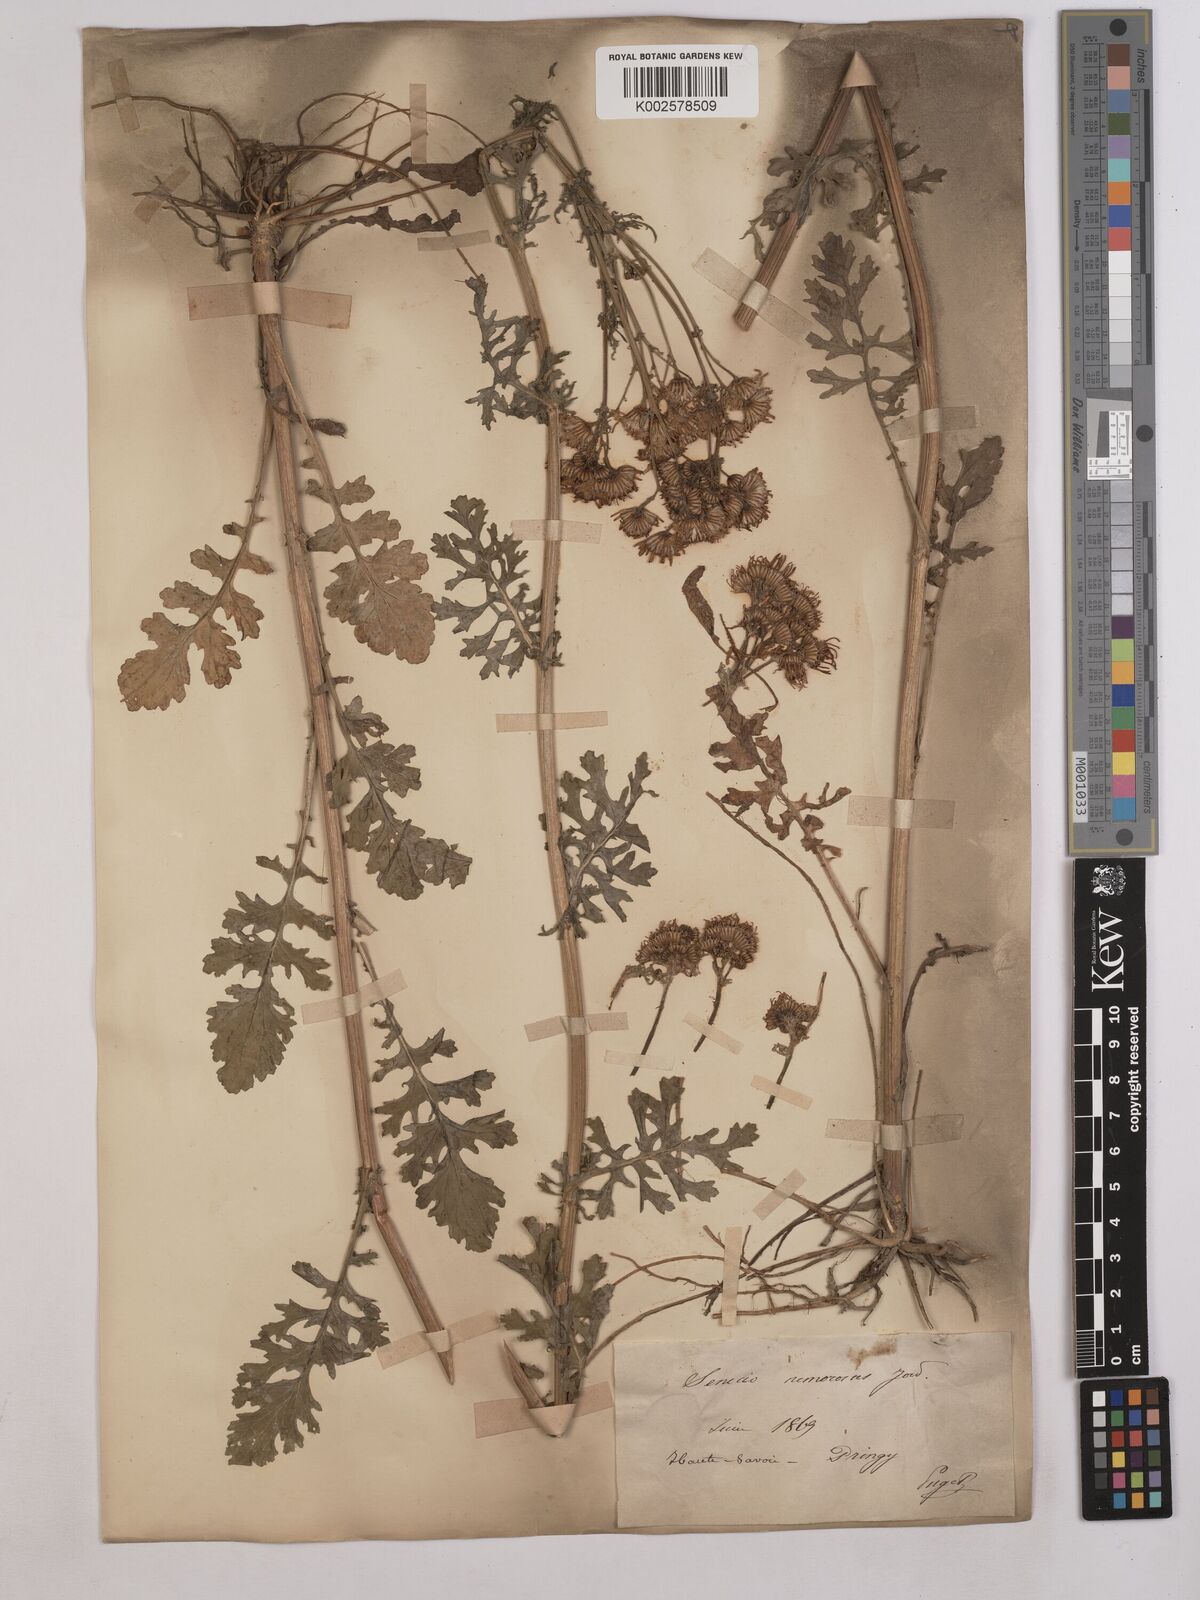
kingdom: Plantae
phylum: Tracheophyta
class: Magnoliopsida
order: Asterales
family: Asteraceae
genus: Senecio
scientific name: Senecio
